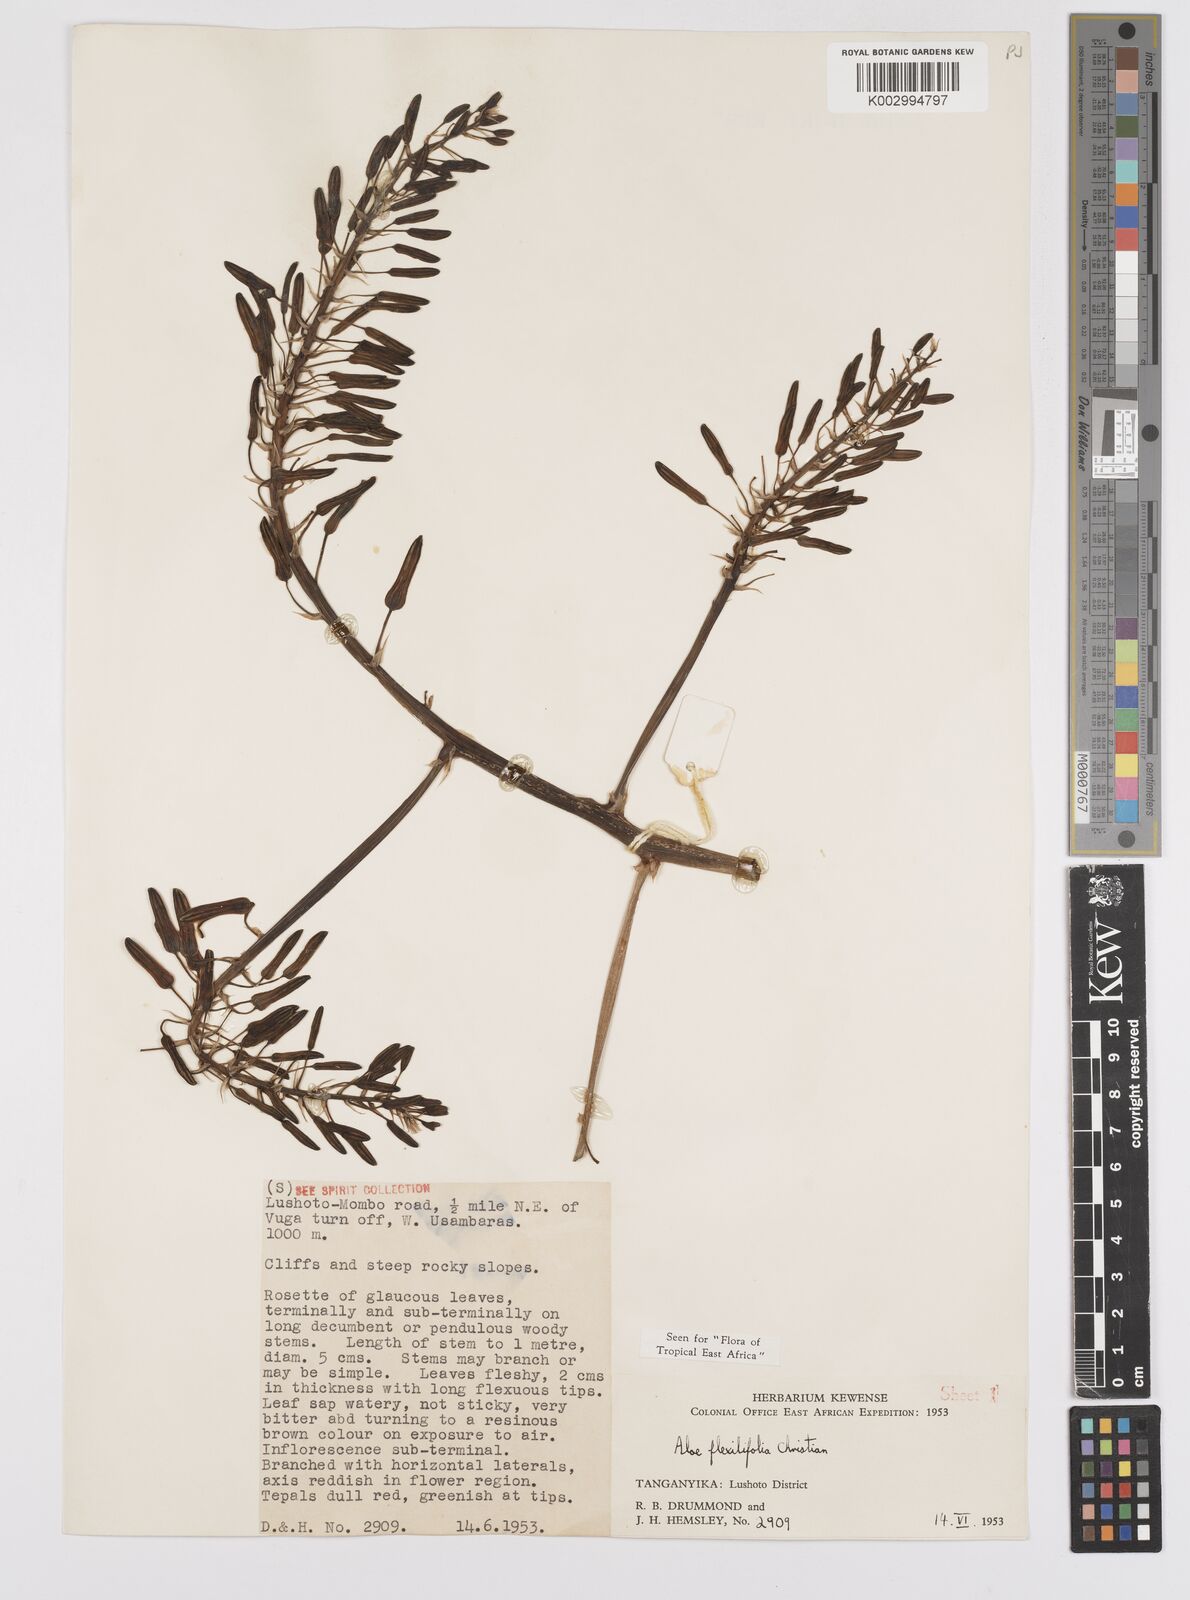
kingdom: Plantae
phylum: Tracheophyta
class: Liliopsida
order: Asparagales
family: Asphodelaceae
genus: Aloe
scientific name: Aloe flexilifolia
